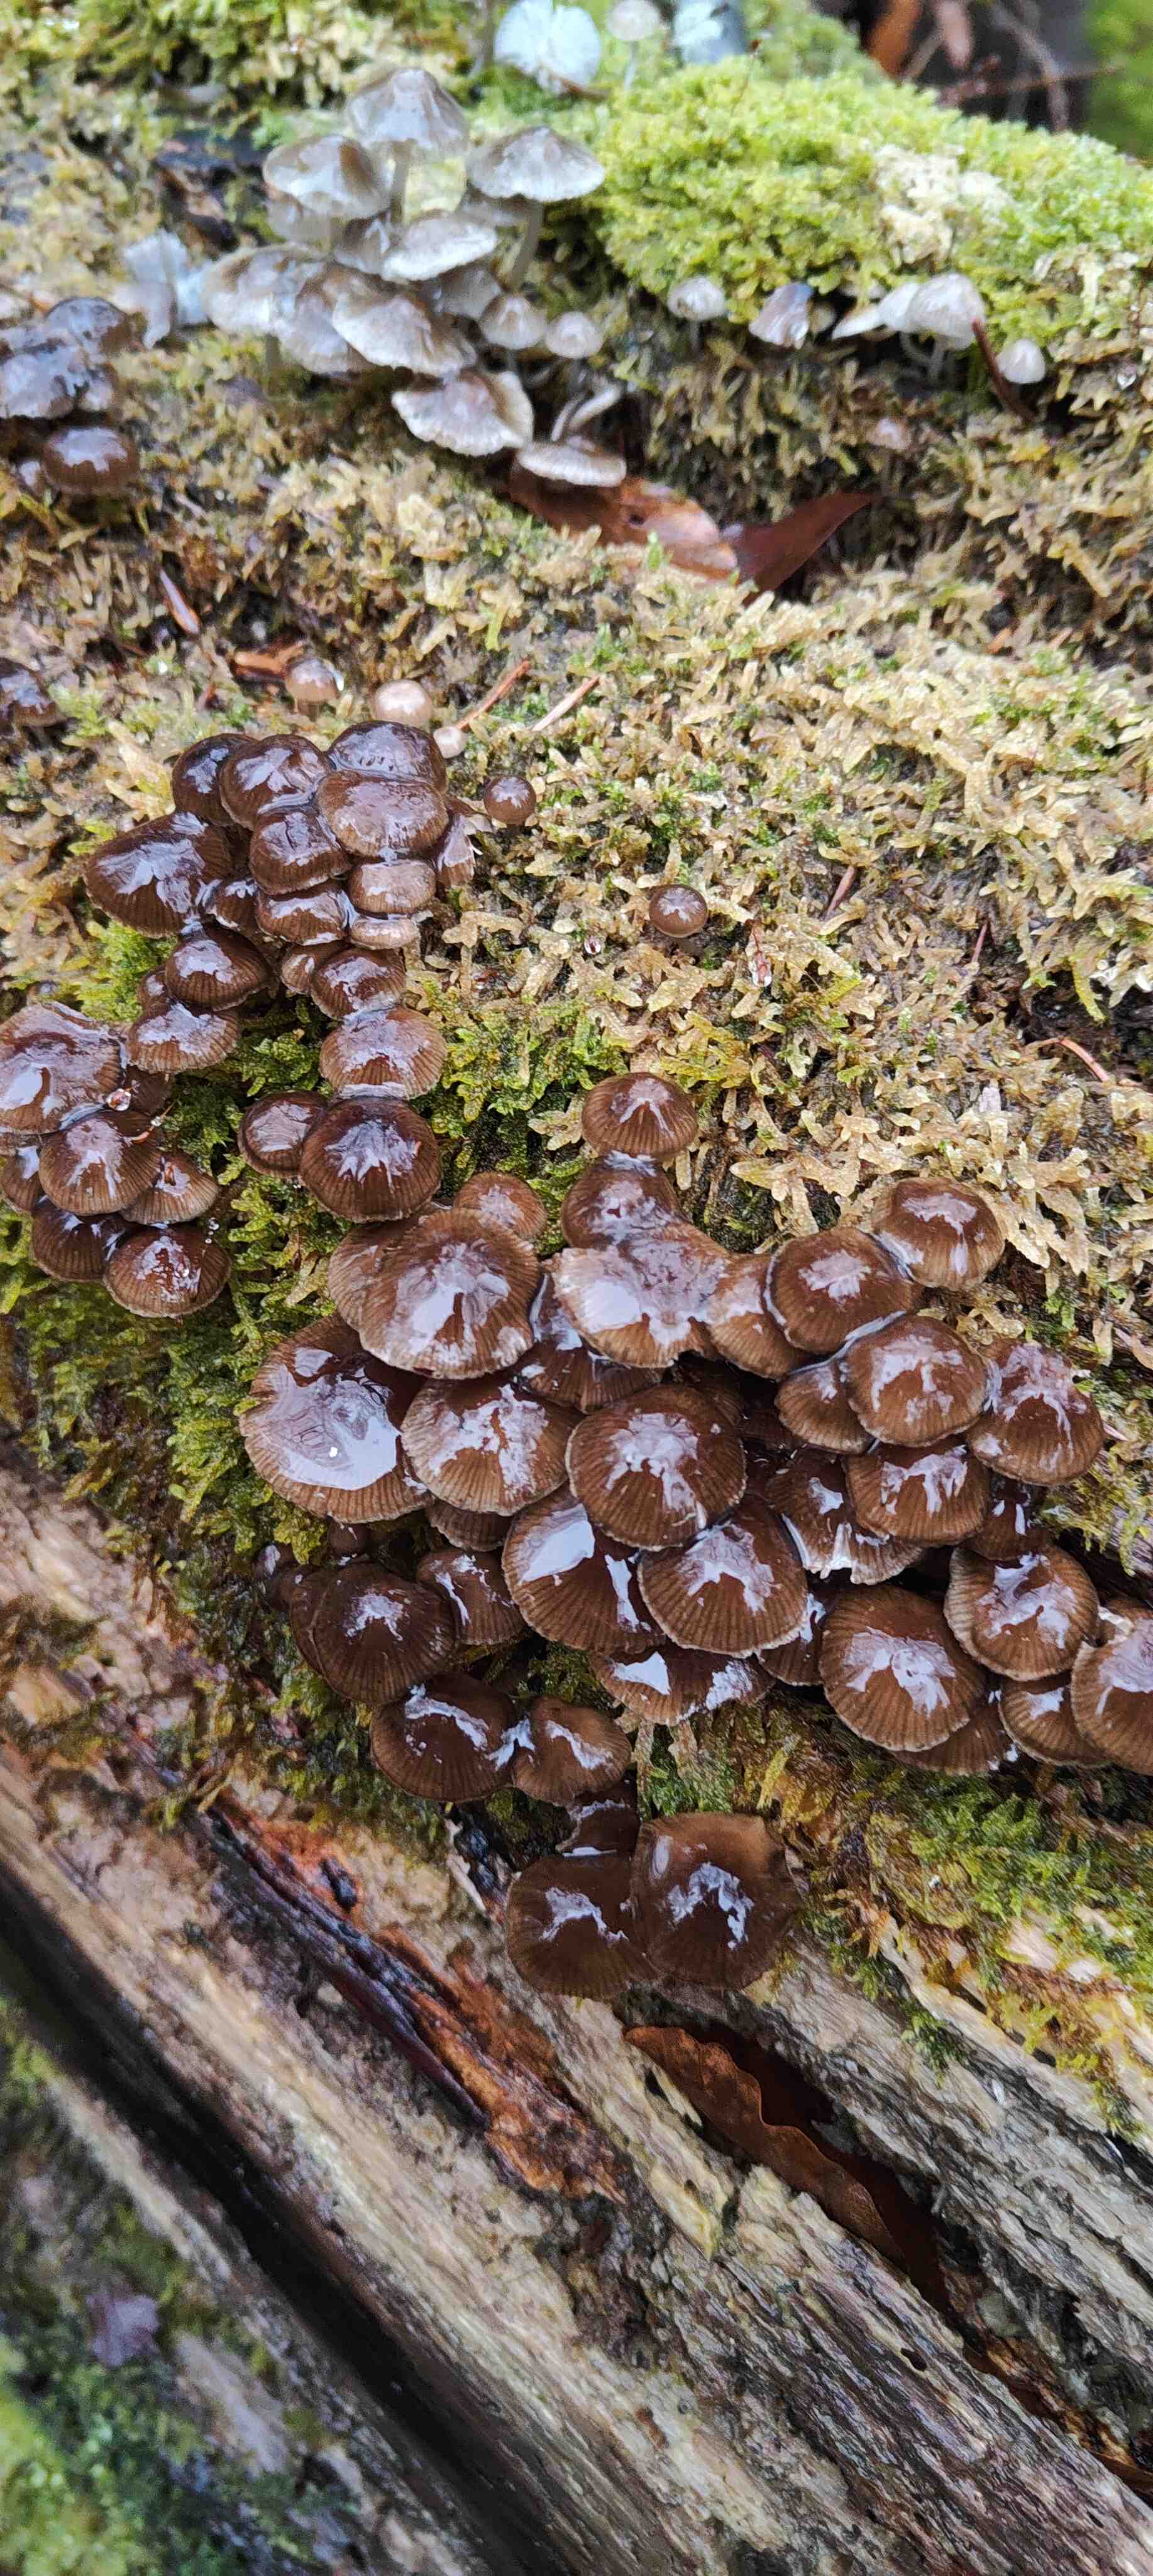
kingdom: Fungi
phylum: Basidiomycota
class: Agaricomycetes
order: Agaricales
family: Mycenaceae
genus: Mycena
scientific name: Mycena tintinnabulum
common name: vinter-huesvamp
